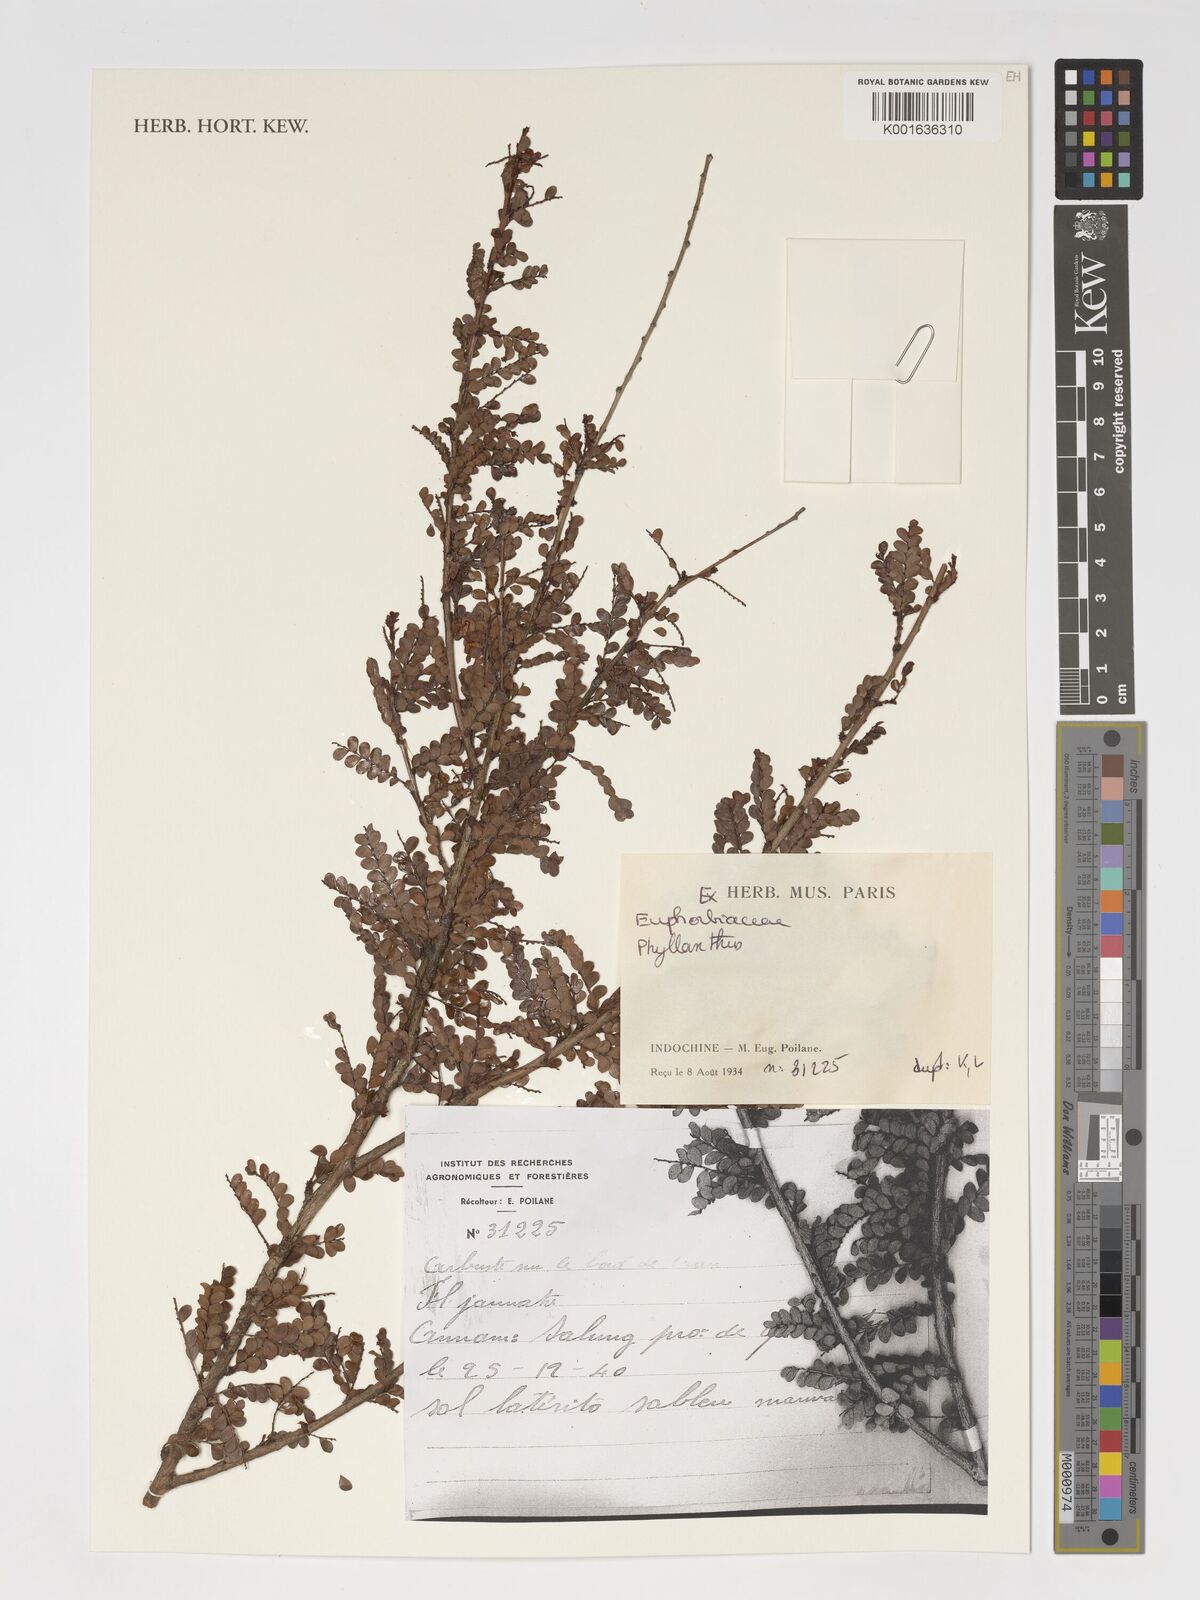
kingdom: Plantae
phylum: Tracheophyta
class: Magnoliopsida
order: Malpighiales
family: Phyllanthaceae
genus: Phyllanthus
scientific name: Phyllanthus
